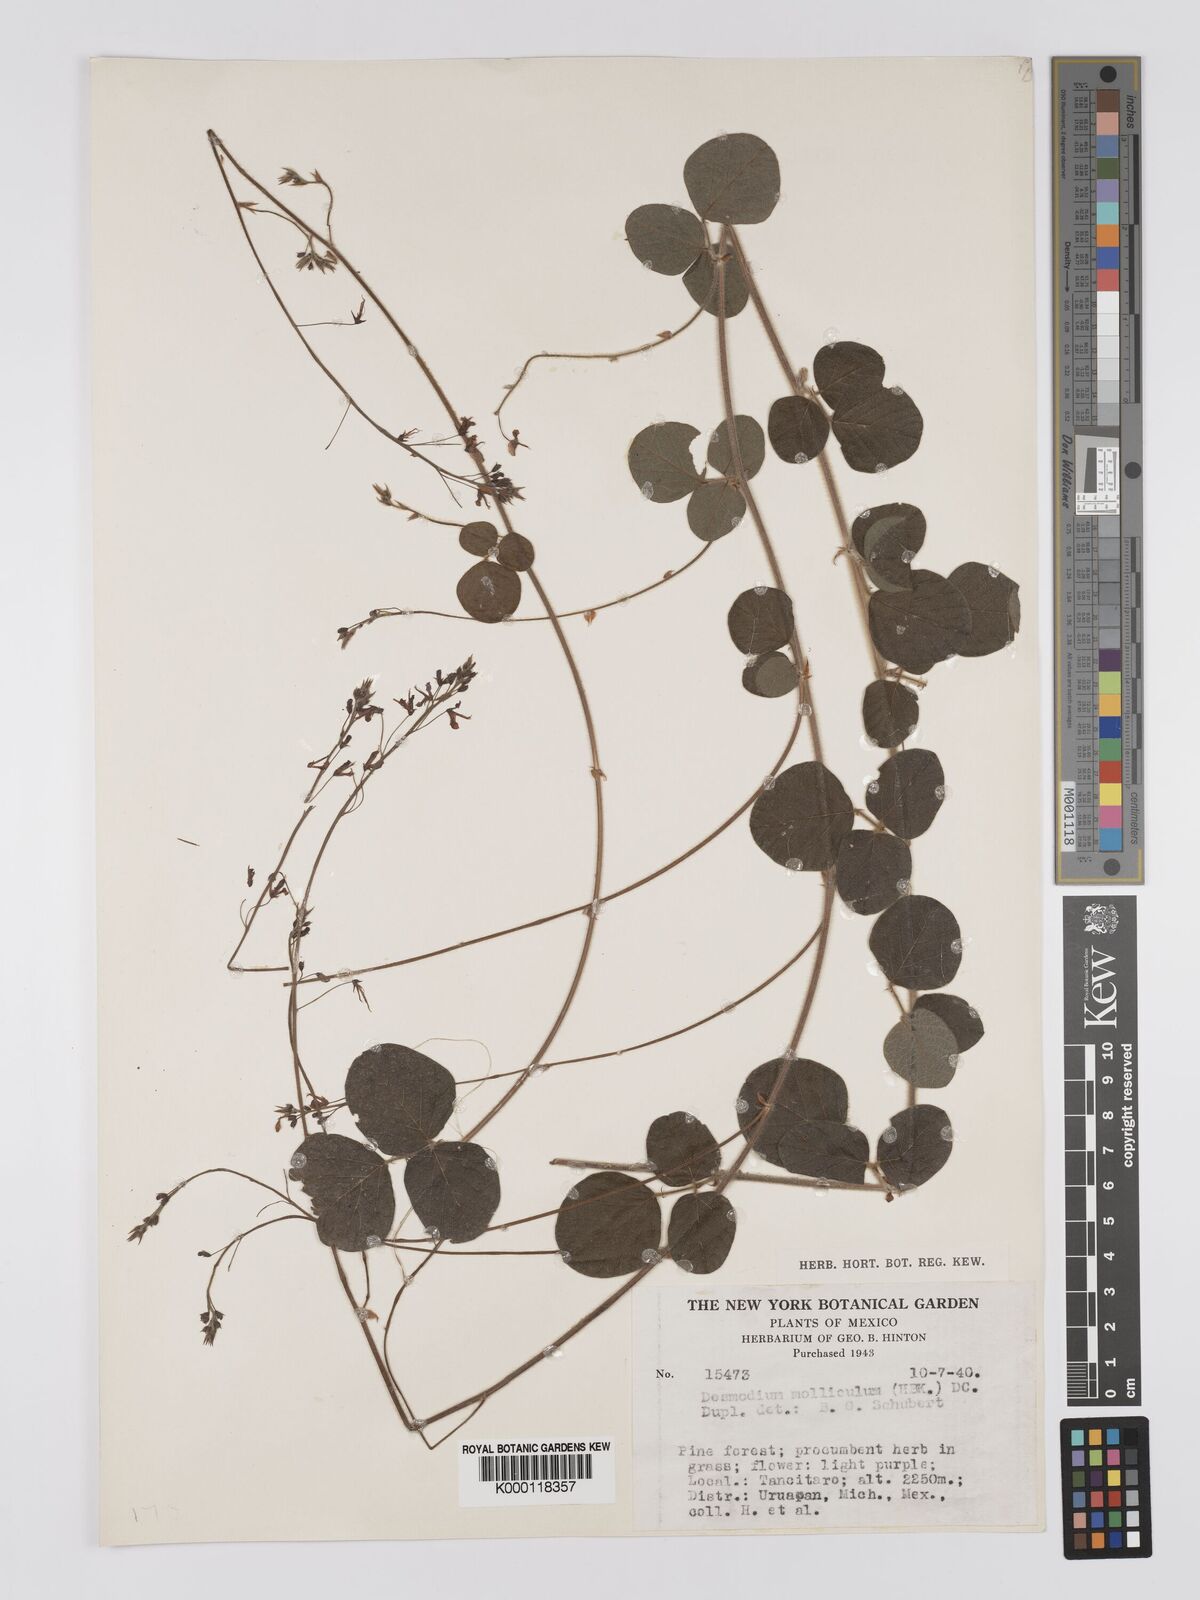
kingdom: Plantae
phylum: Tracheophyta
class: Magnoliopsida
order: Fabales
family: Fabaceae
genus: Desmodium
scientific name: Desmodium molliculum
